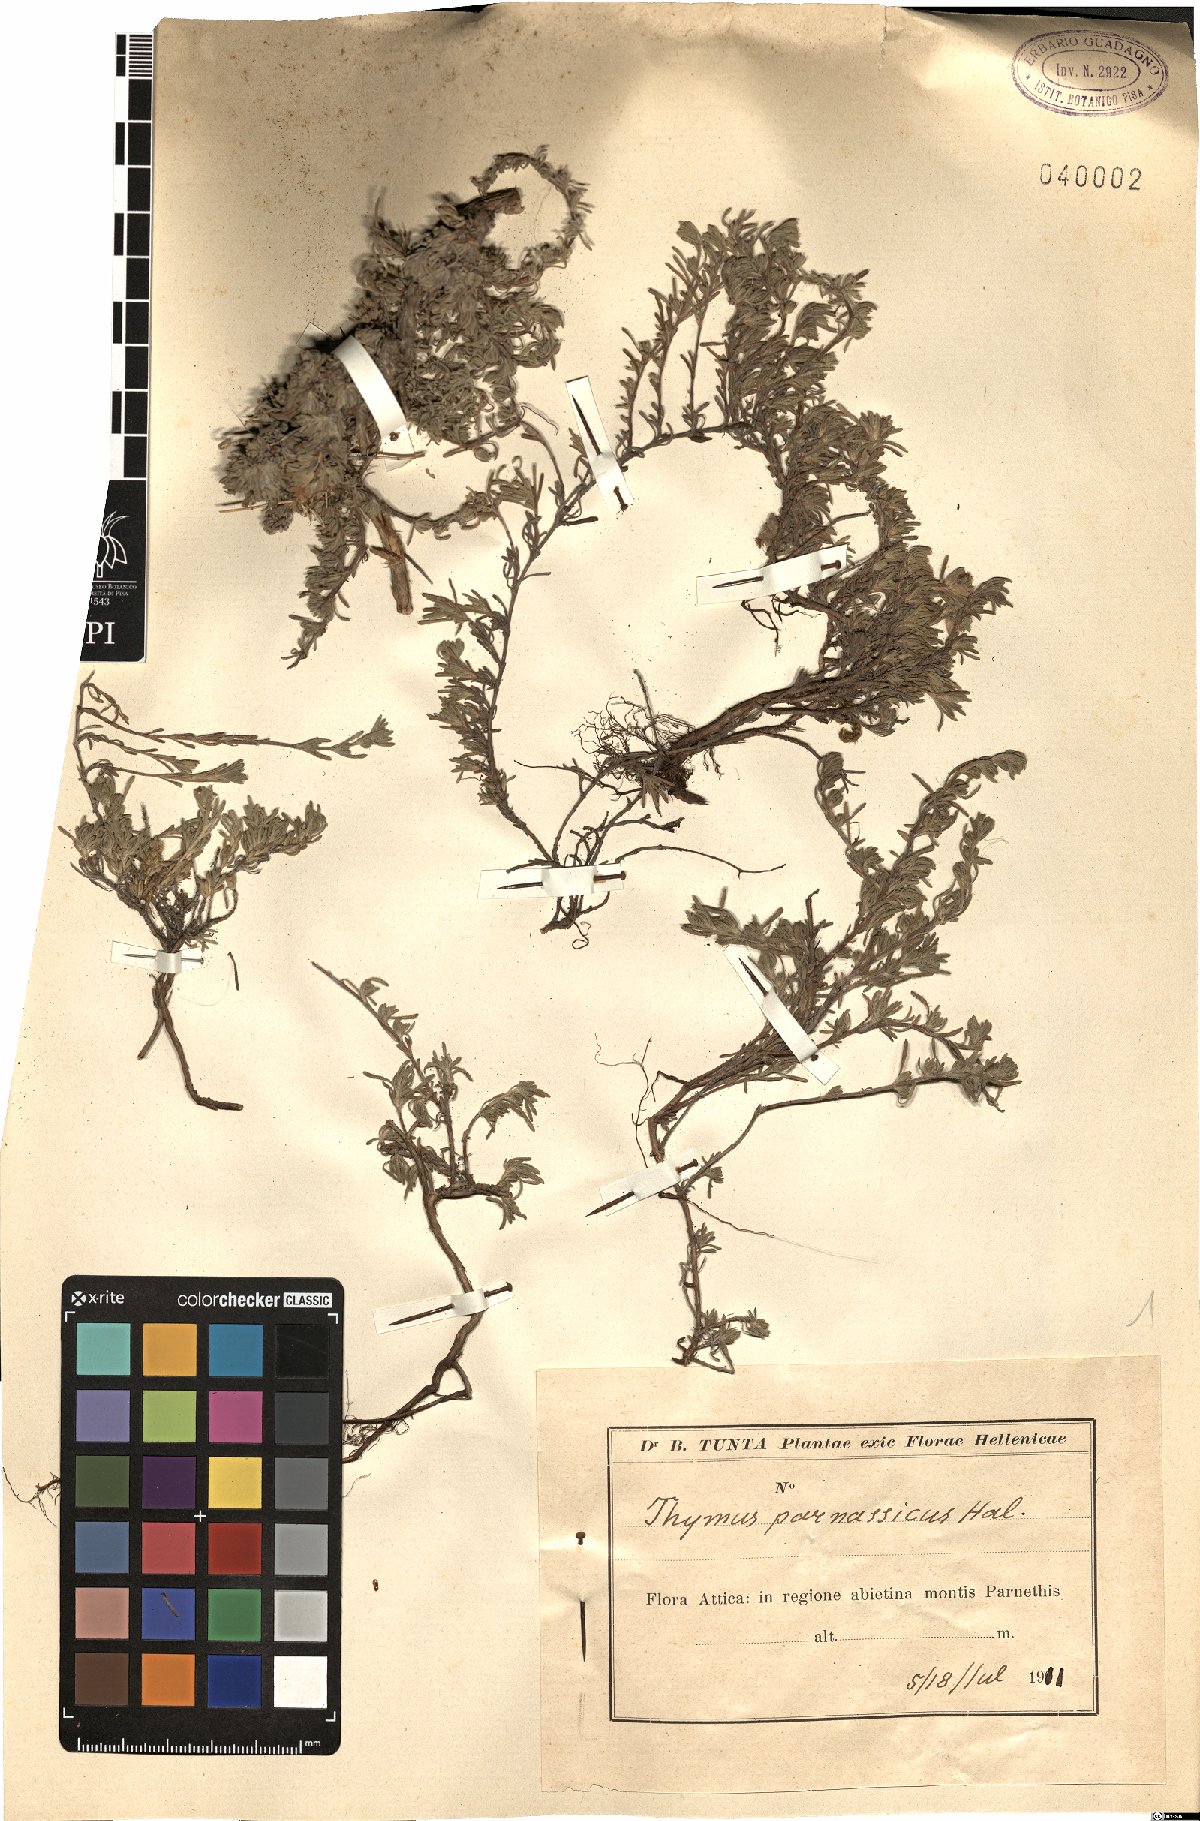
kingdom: Plantae
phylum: Tracheophyta
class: Magnoliopsida
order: Lamiales
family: Lamiaceae
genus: Thymus
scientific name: Thymus parnassicus
